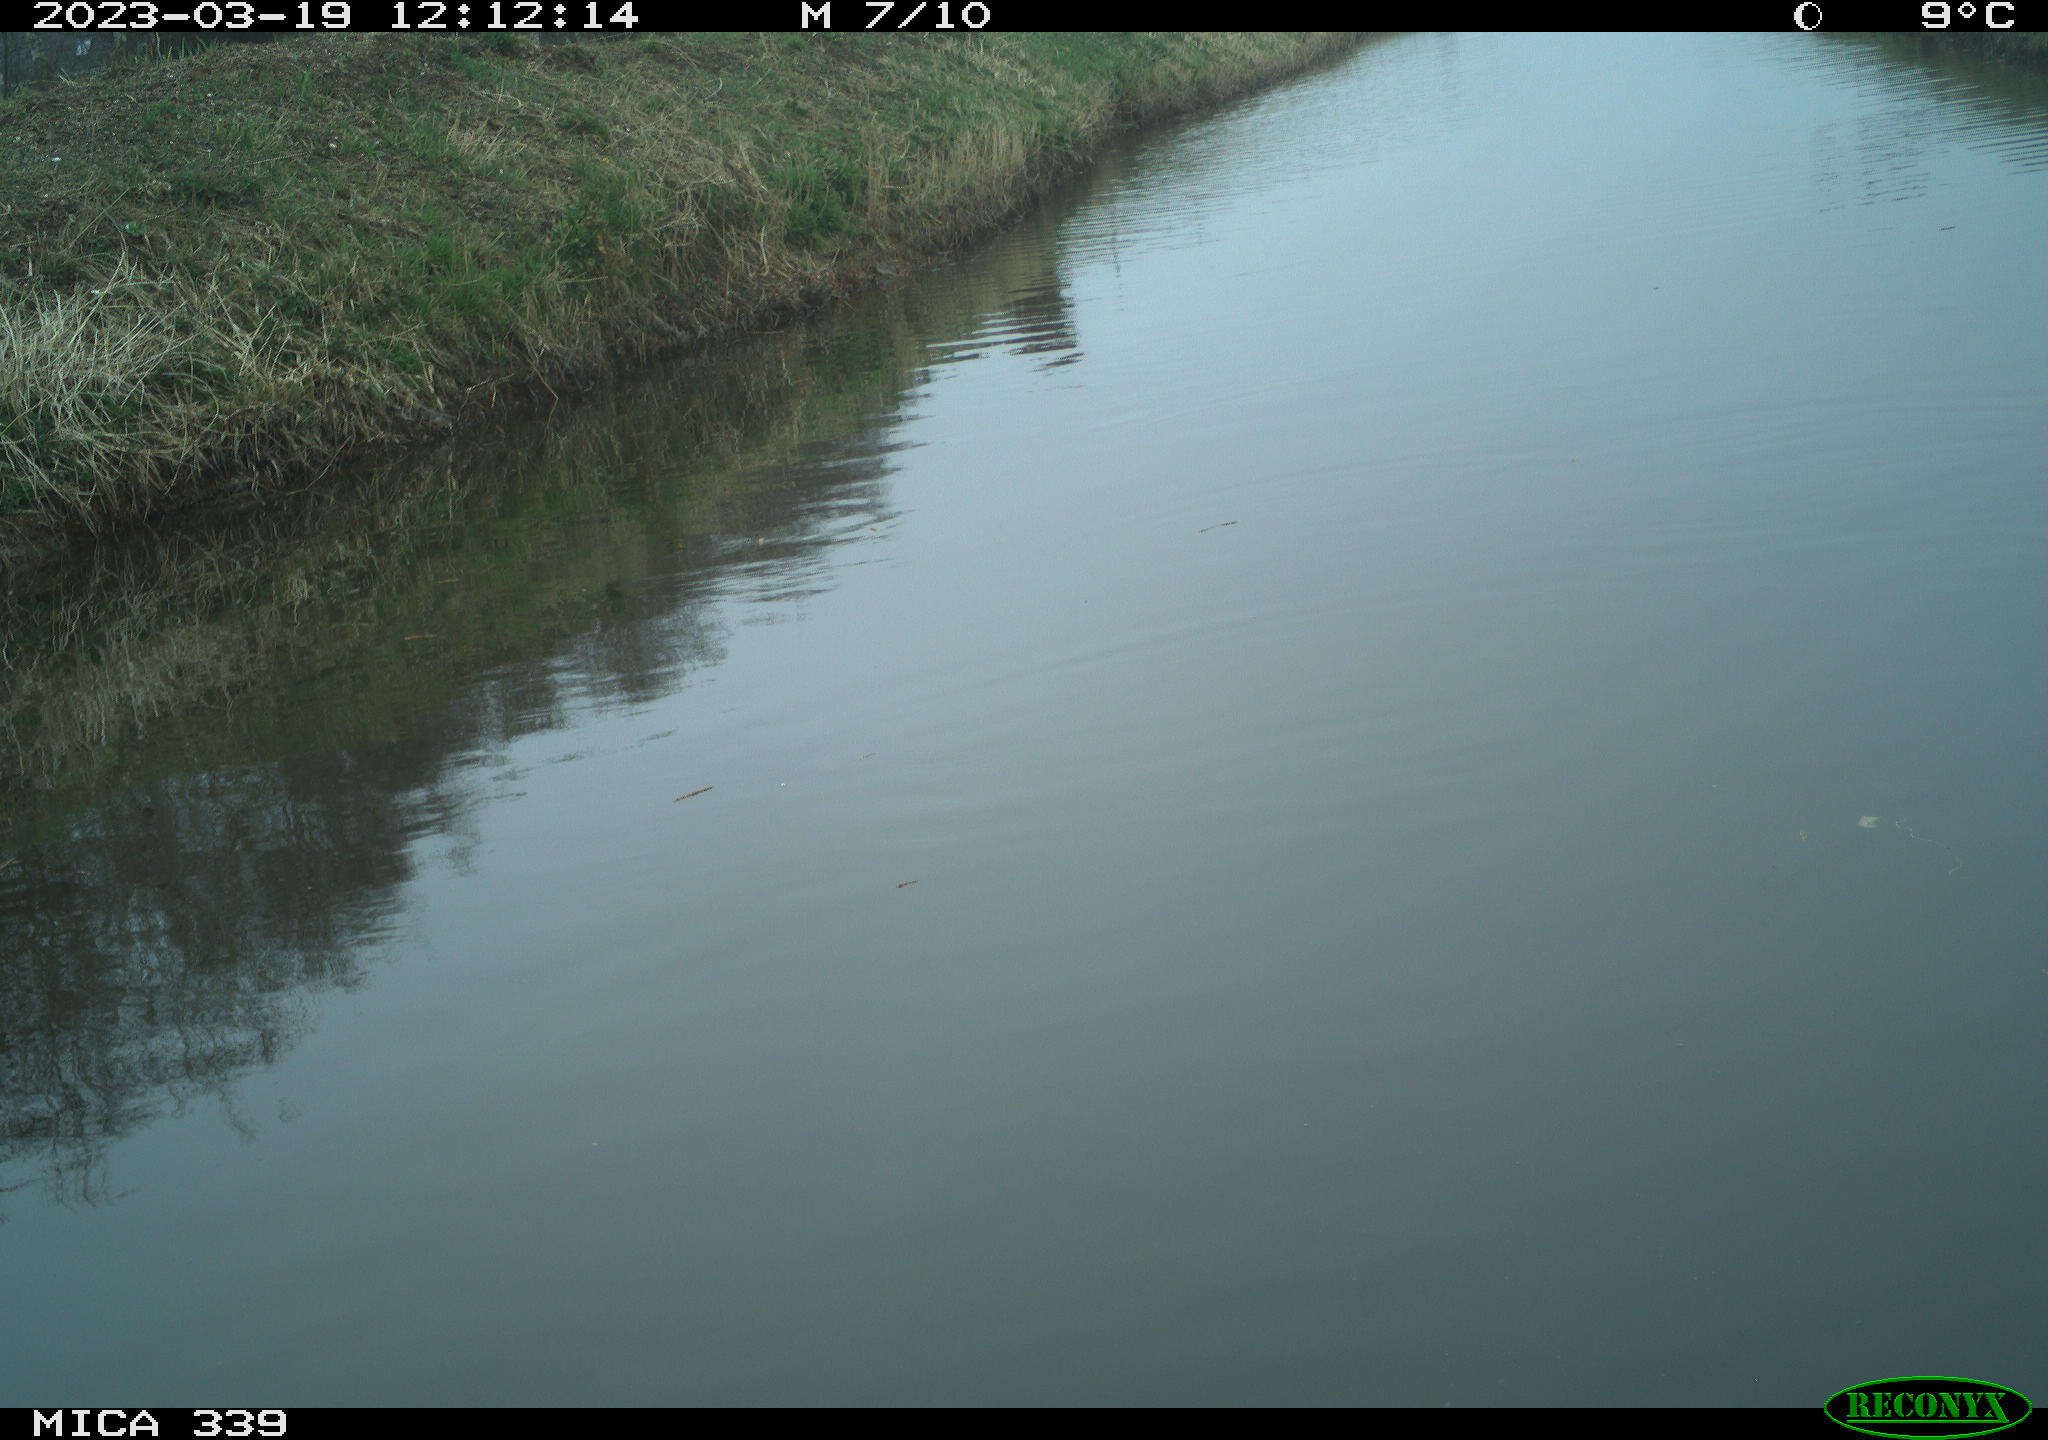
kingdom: Animalia
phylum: Chordata
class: Aves
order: Pelecaniformes
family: Ardeidae
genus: Ardea
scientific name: Ardea
